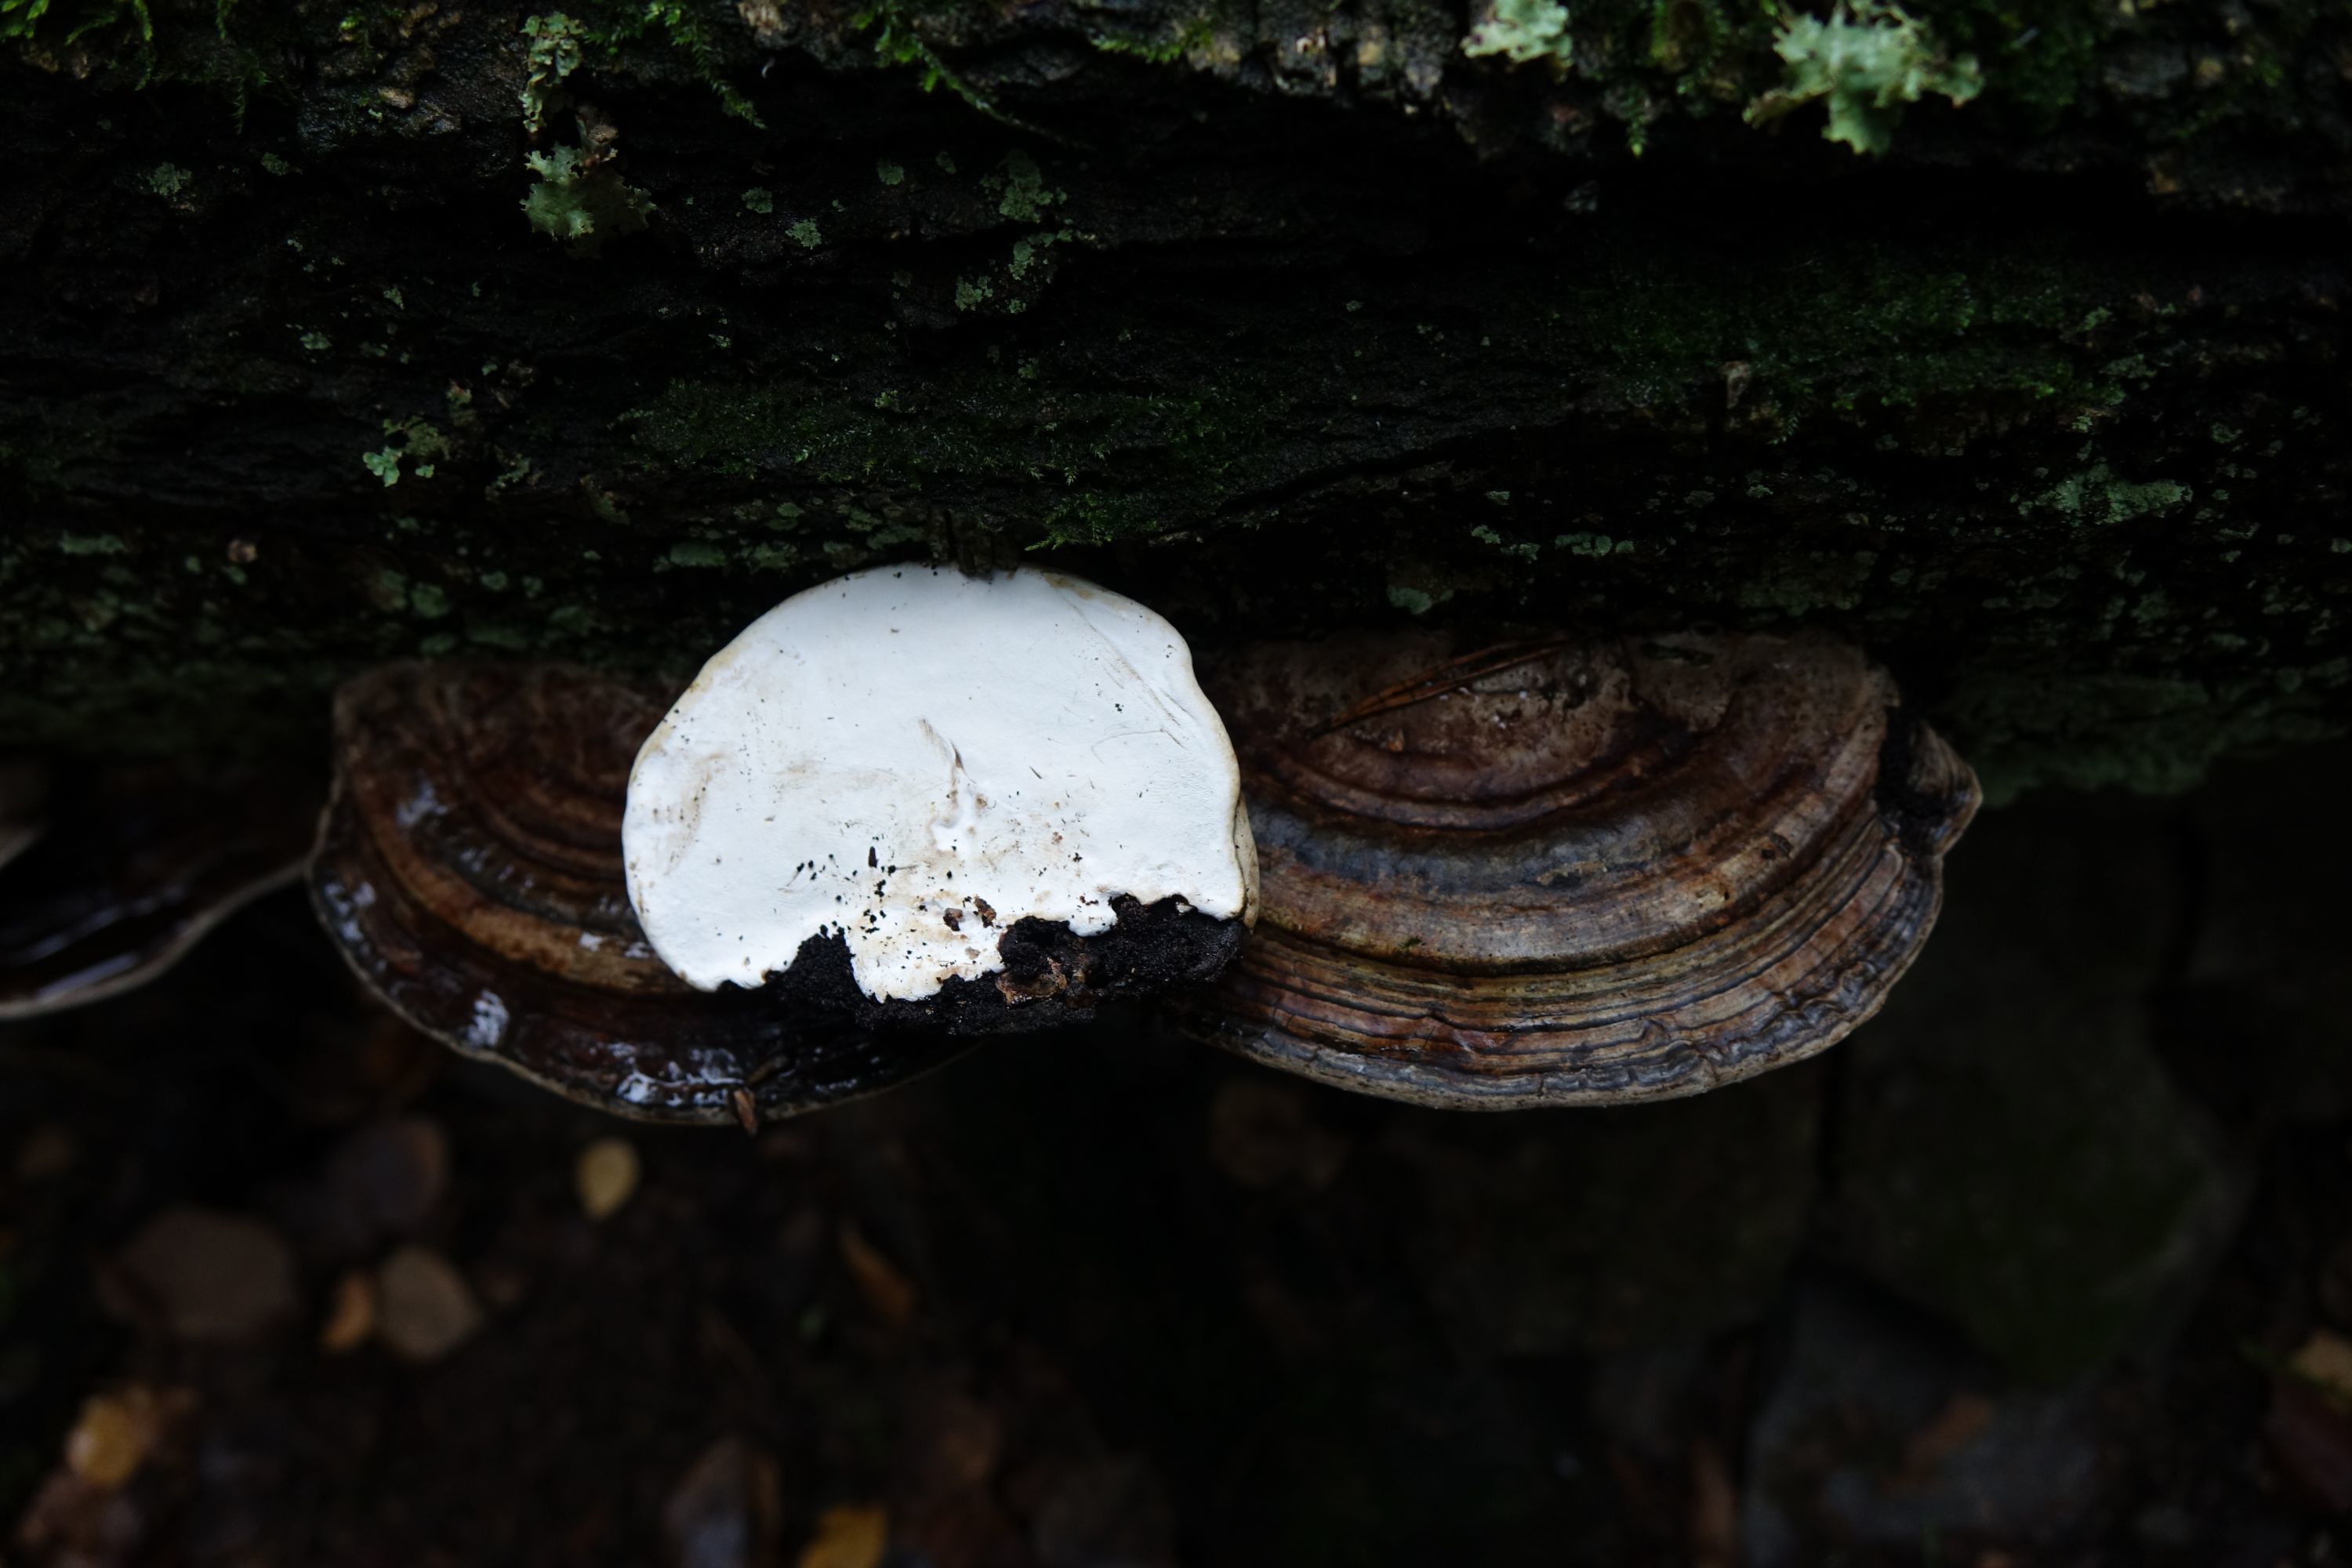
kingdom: Fungi
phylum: Basidiomycota
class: Agaricomycetes
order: Polyporales
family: Polyporaceae
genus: Ganoderma
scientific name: Ganoderma applanatum
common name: Artist's bracket
